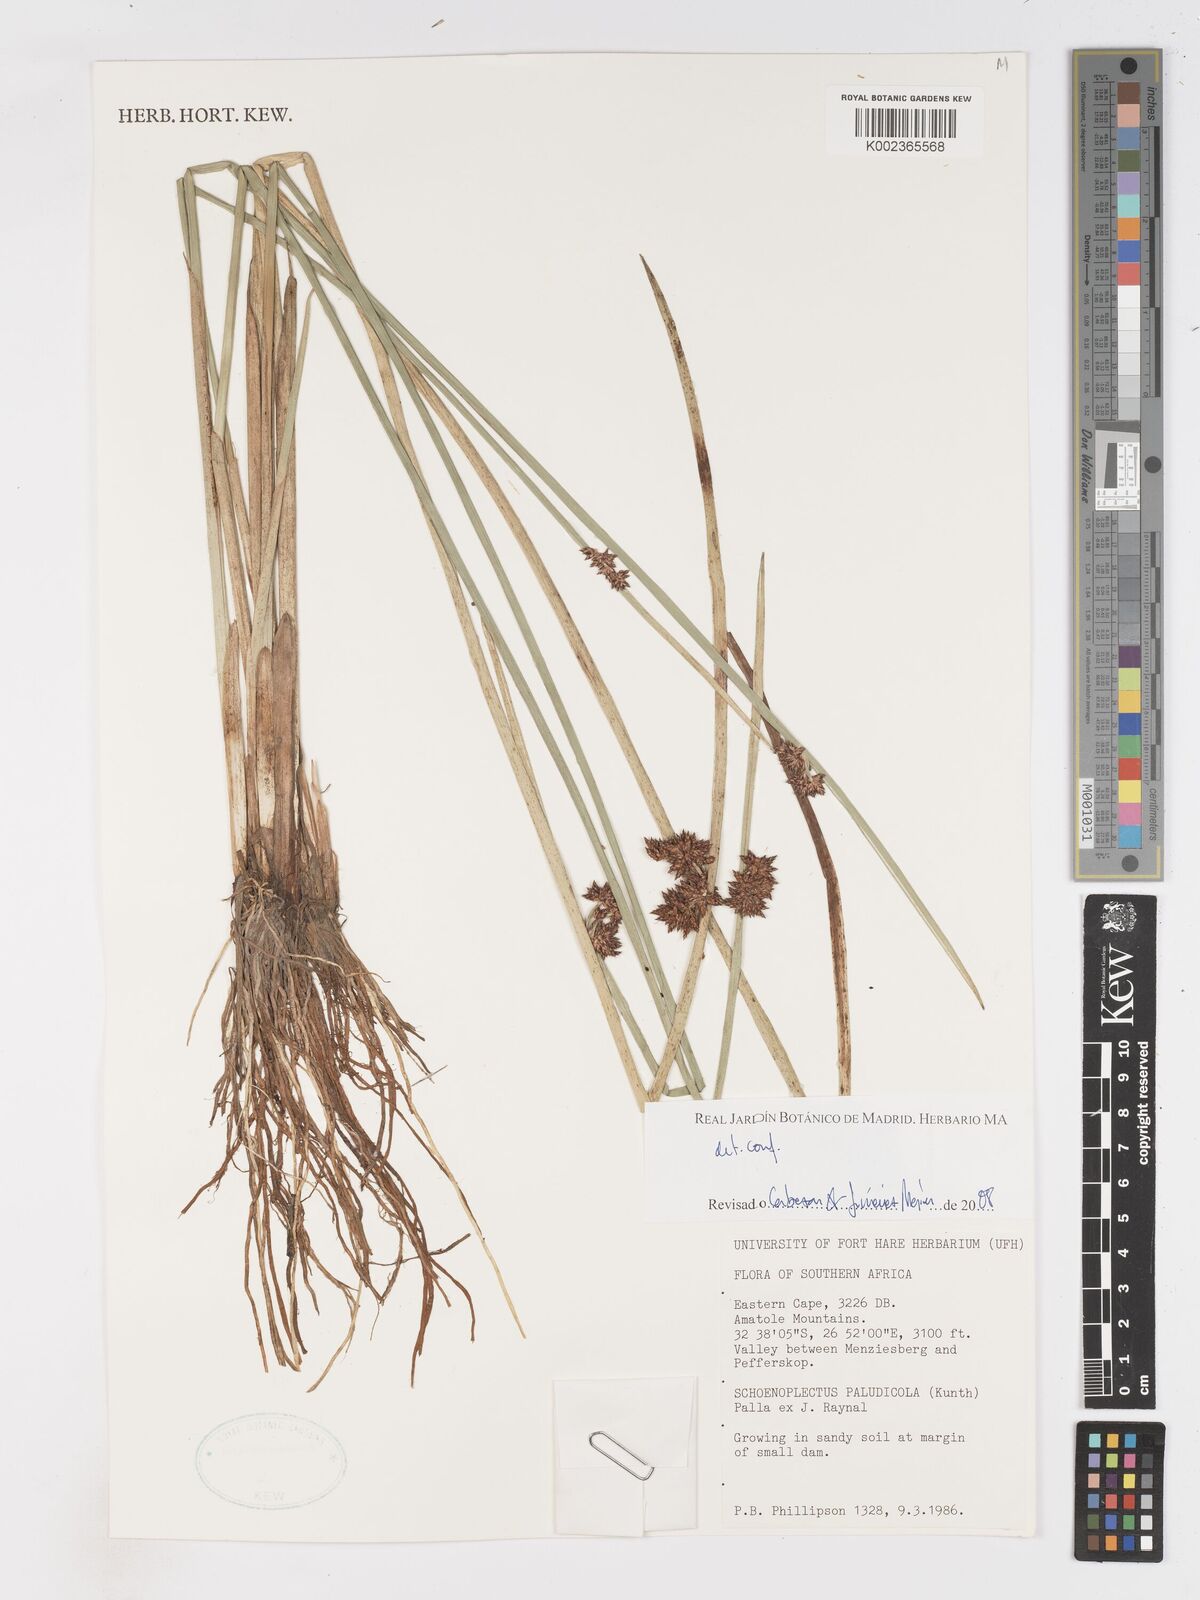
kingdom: Plantae
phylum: Tracheophyta
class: Liliopsida
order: Poales
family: Cyperaceae
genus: Schoenoplectiella
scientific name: Schoenoplectiella paludicola
